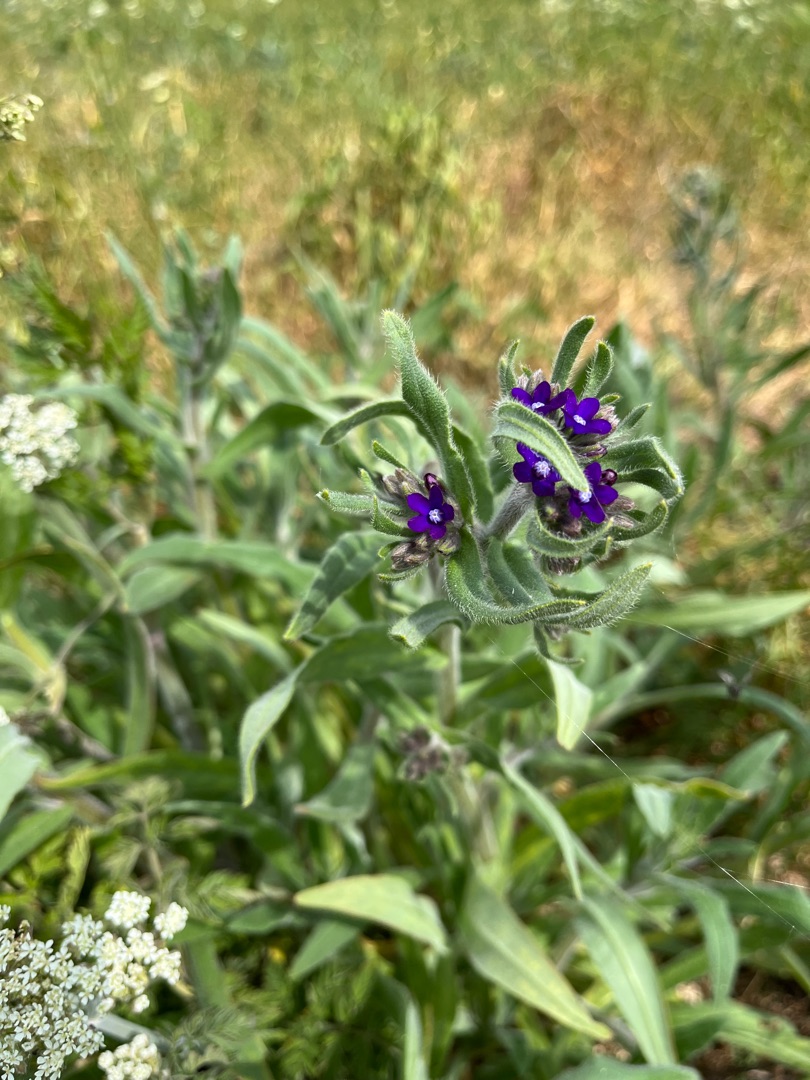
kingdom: Plantae
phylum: Tracheophyta
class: Magnoliopsida
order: Boraginales
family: Boraginaceae
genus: Anchusa
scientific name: Anchusa officinalis
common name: Læge-oksetunge
